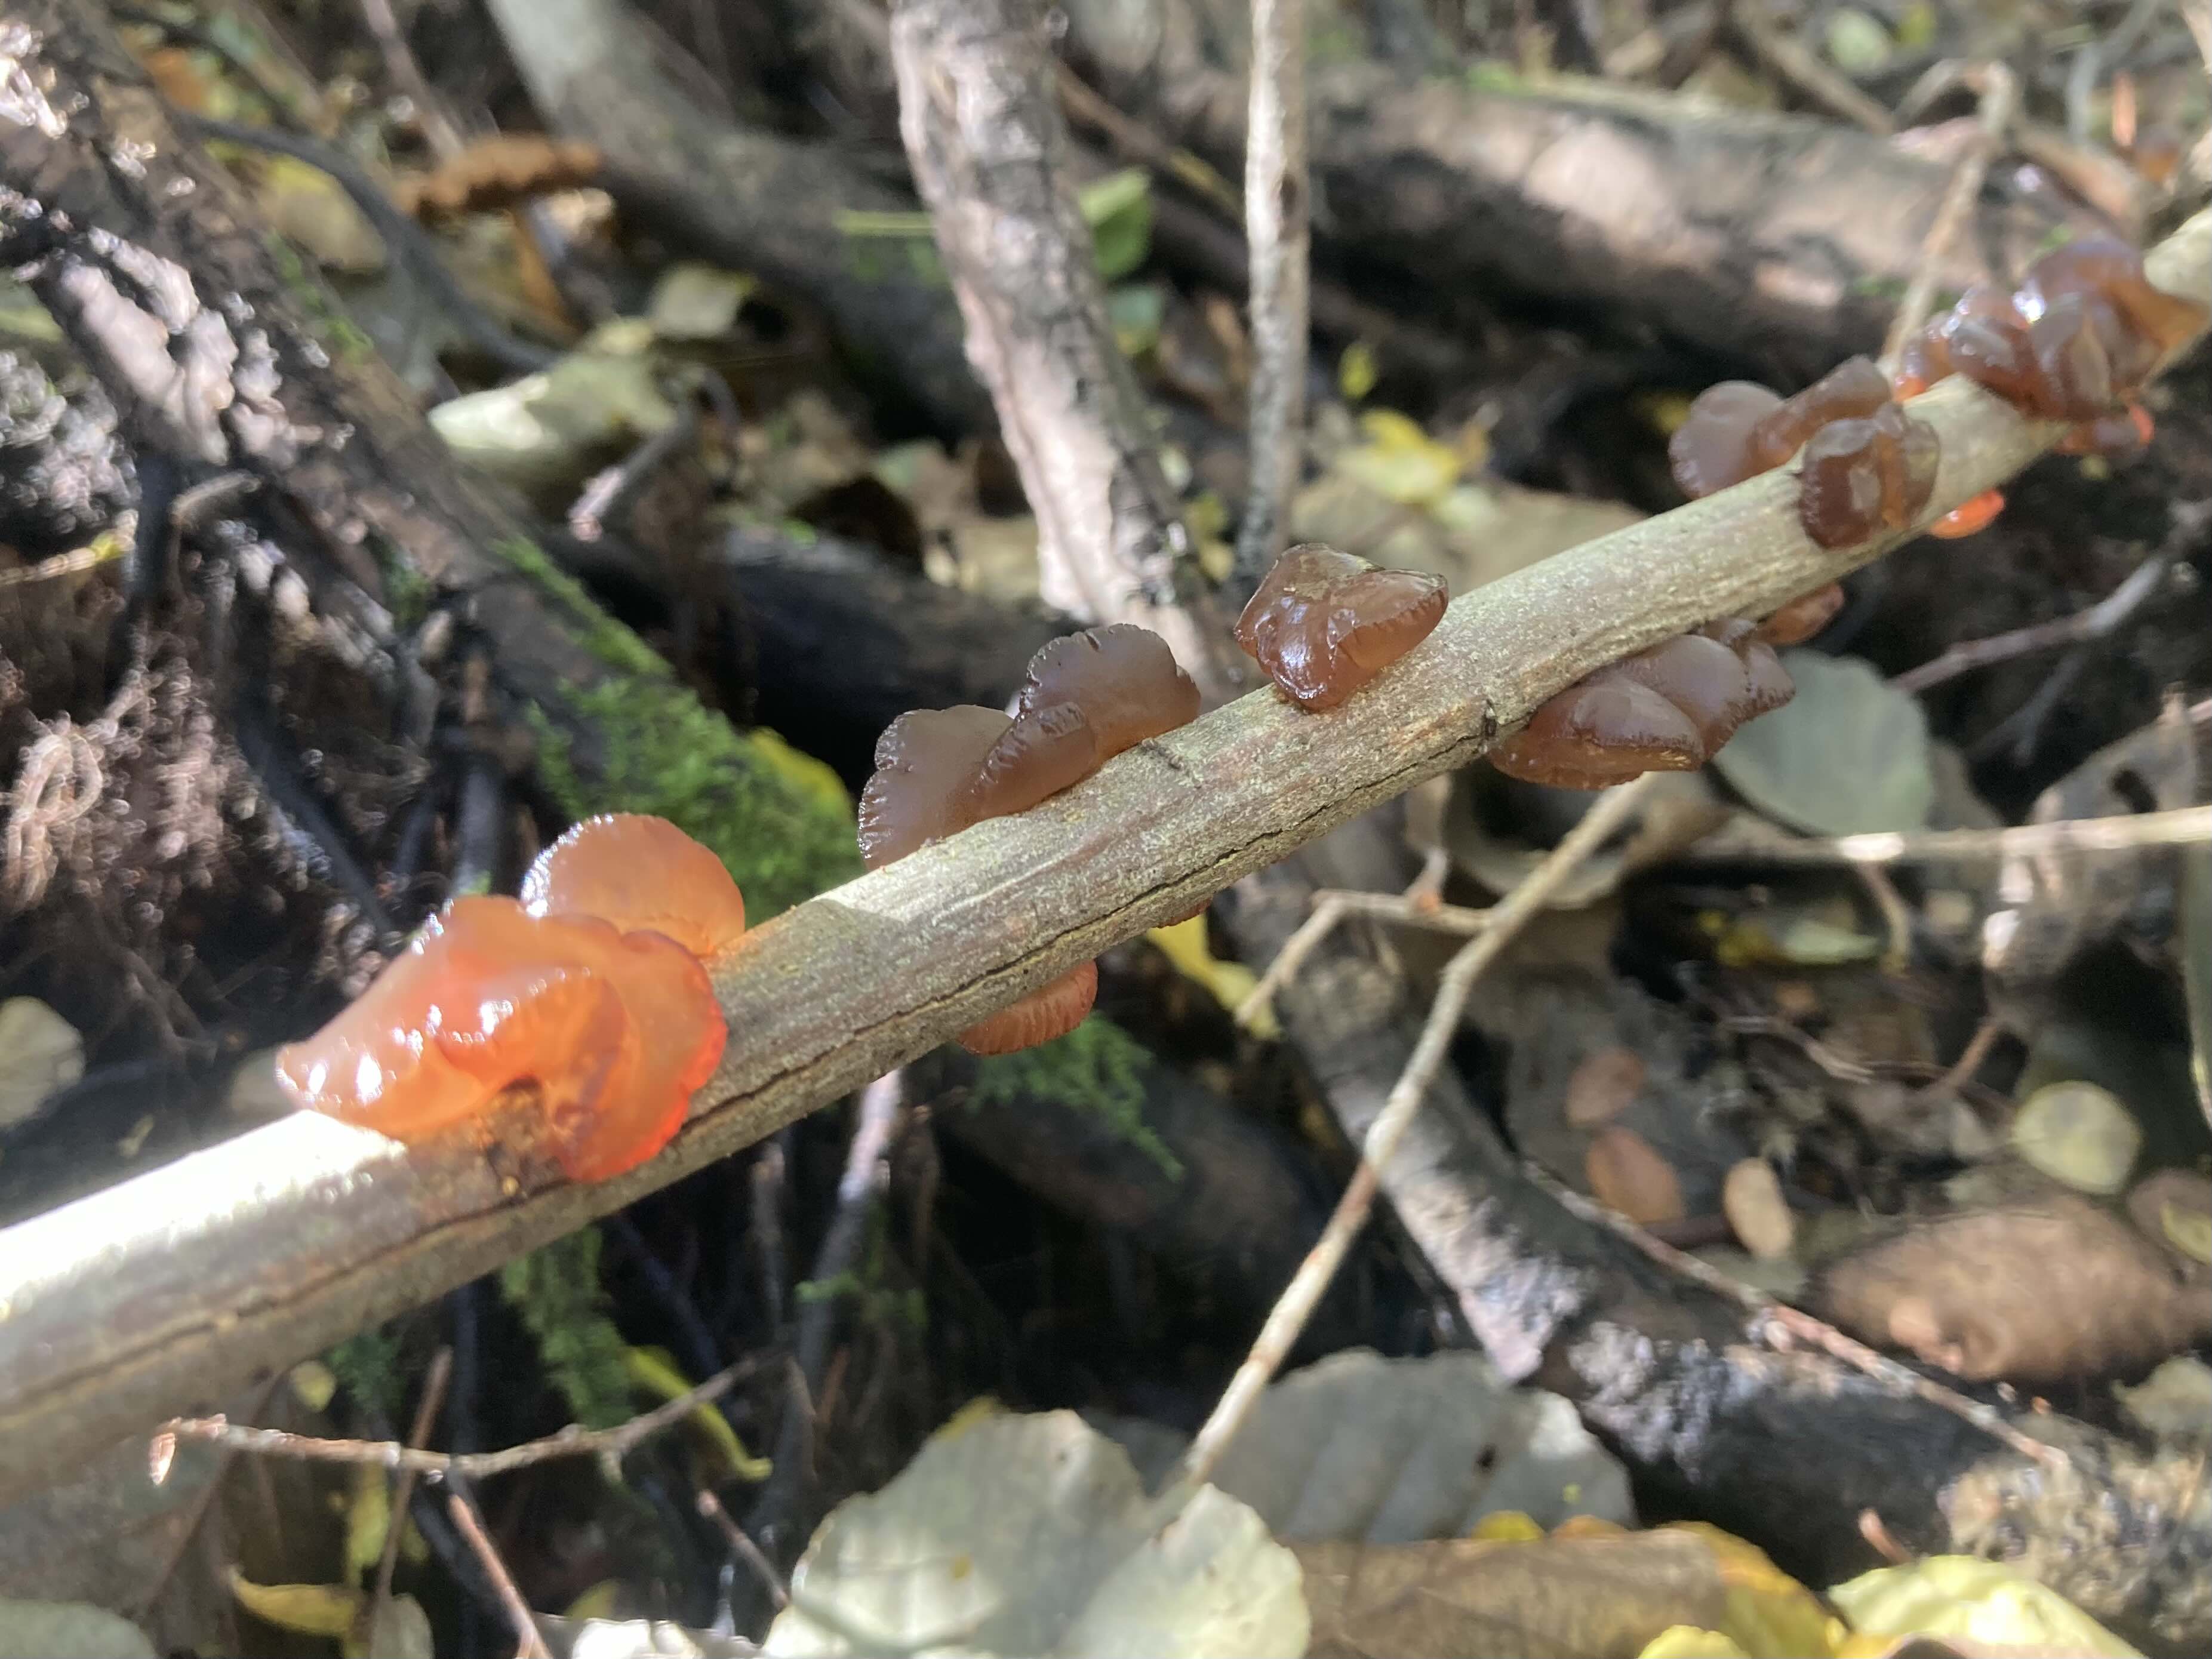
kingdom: Fungi
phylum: Basidiomycota
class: Agaricomycetes
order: Auriculariales
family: Auriculariaceae
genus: Exidia
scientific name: Exidia recisa
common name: pile-bævretop
